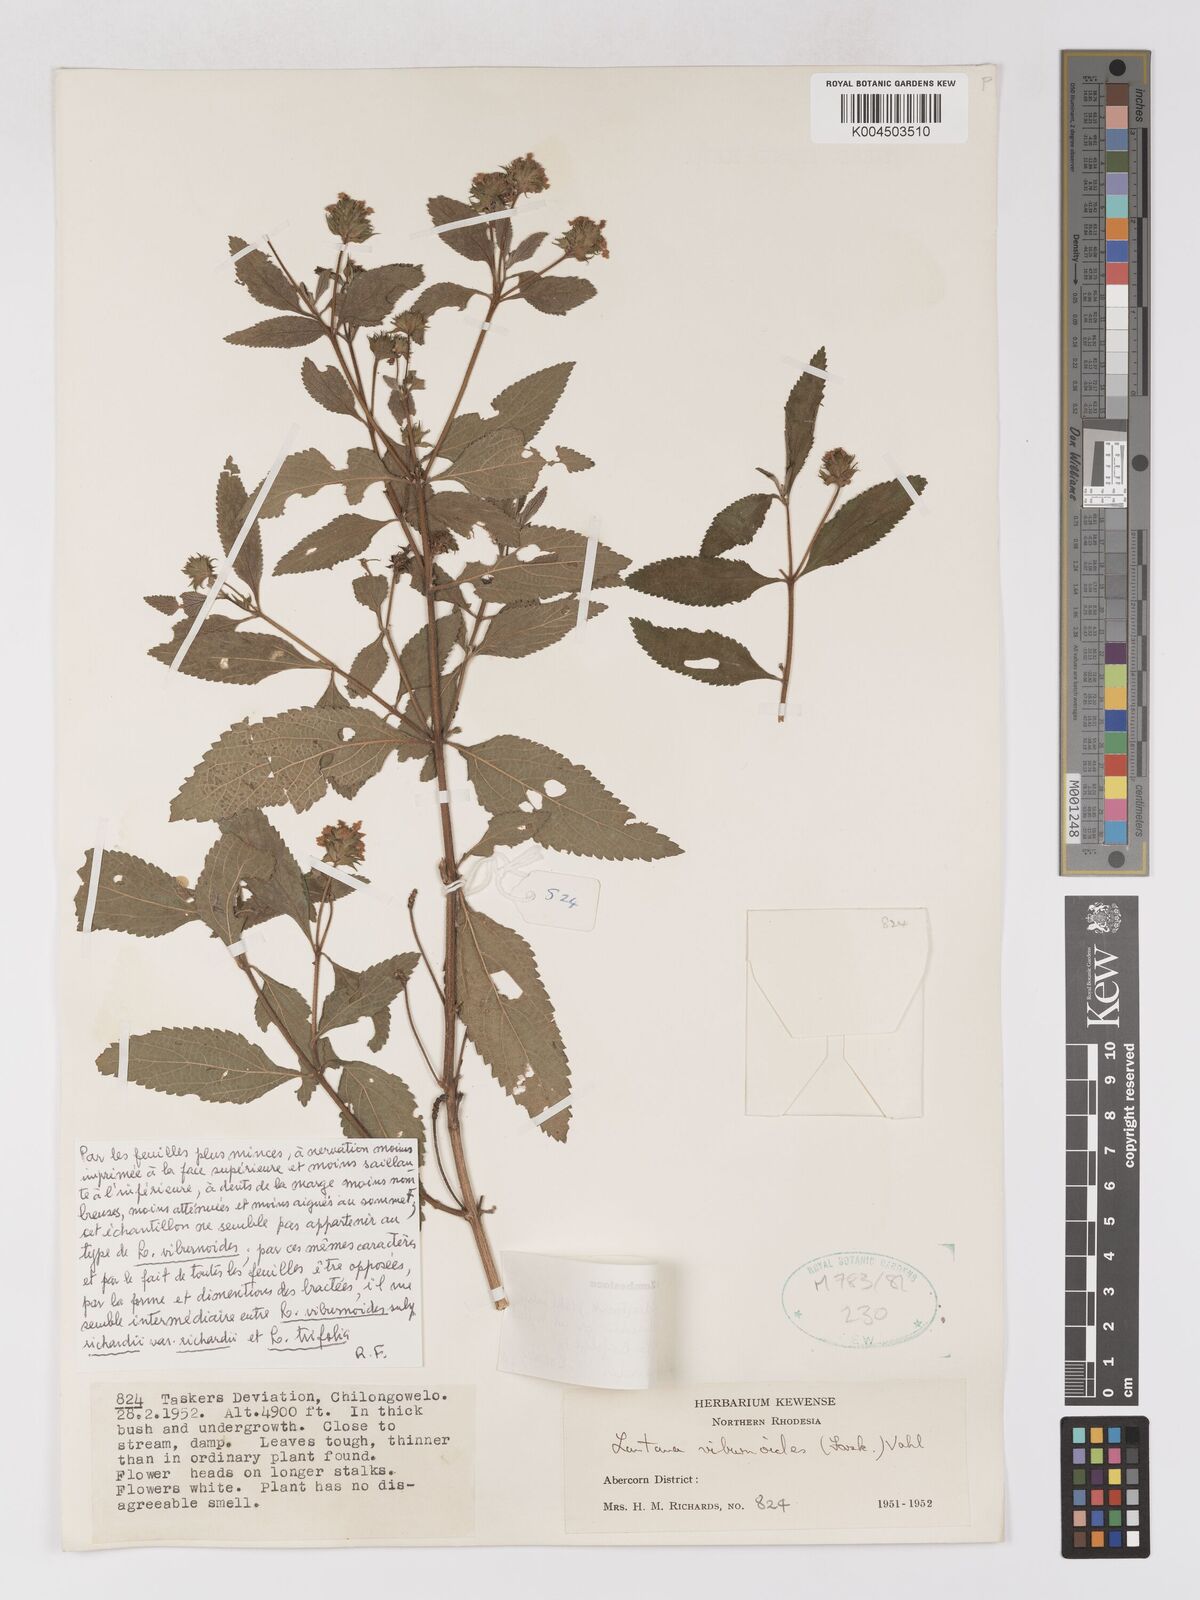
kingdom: Plantae
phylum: Tracheophyta
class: Magnoliopsida
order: Lamiales
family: Verbenaceae
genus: Lantana
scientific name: Lantana
